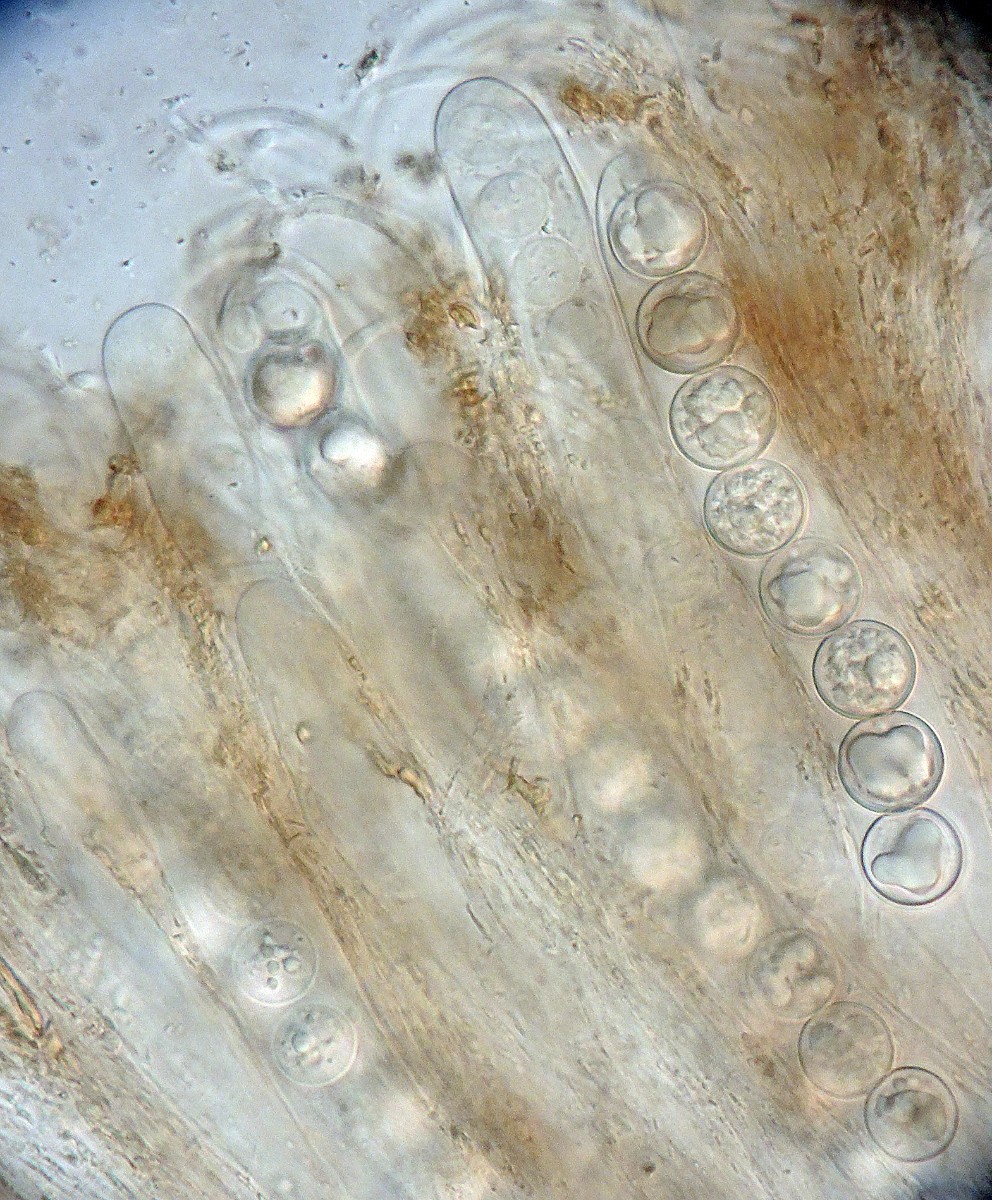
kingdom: Fungi
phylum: Ascomycota
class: Pezizomycetes
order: Pezizales
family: Pulvinulaceae
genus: Pulvinula
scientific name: Pulvinula convexella
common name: stor pudebæger
